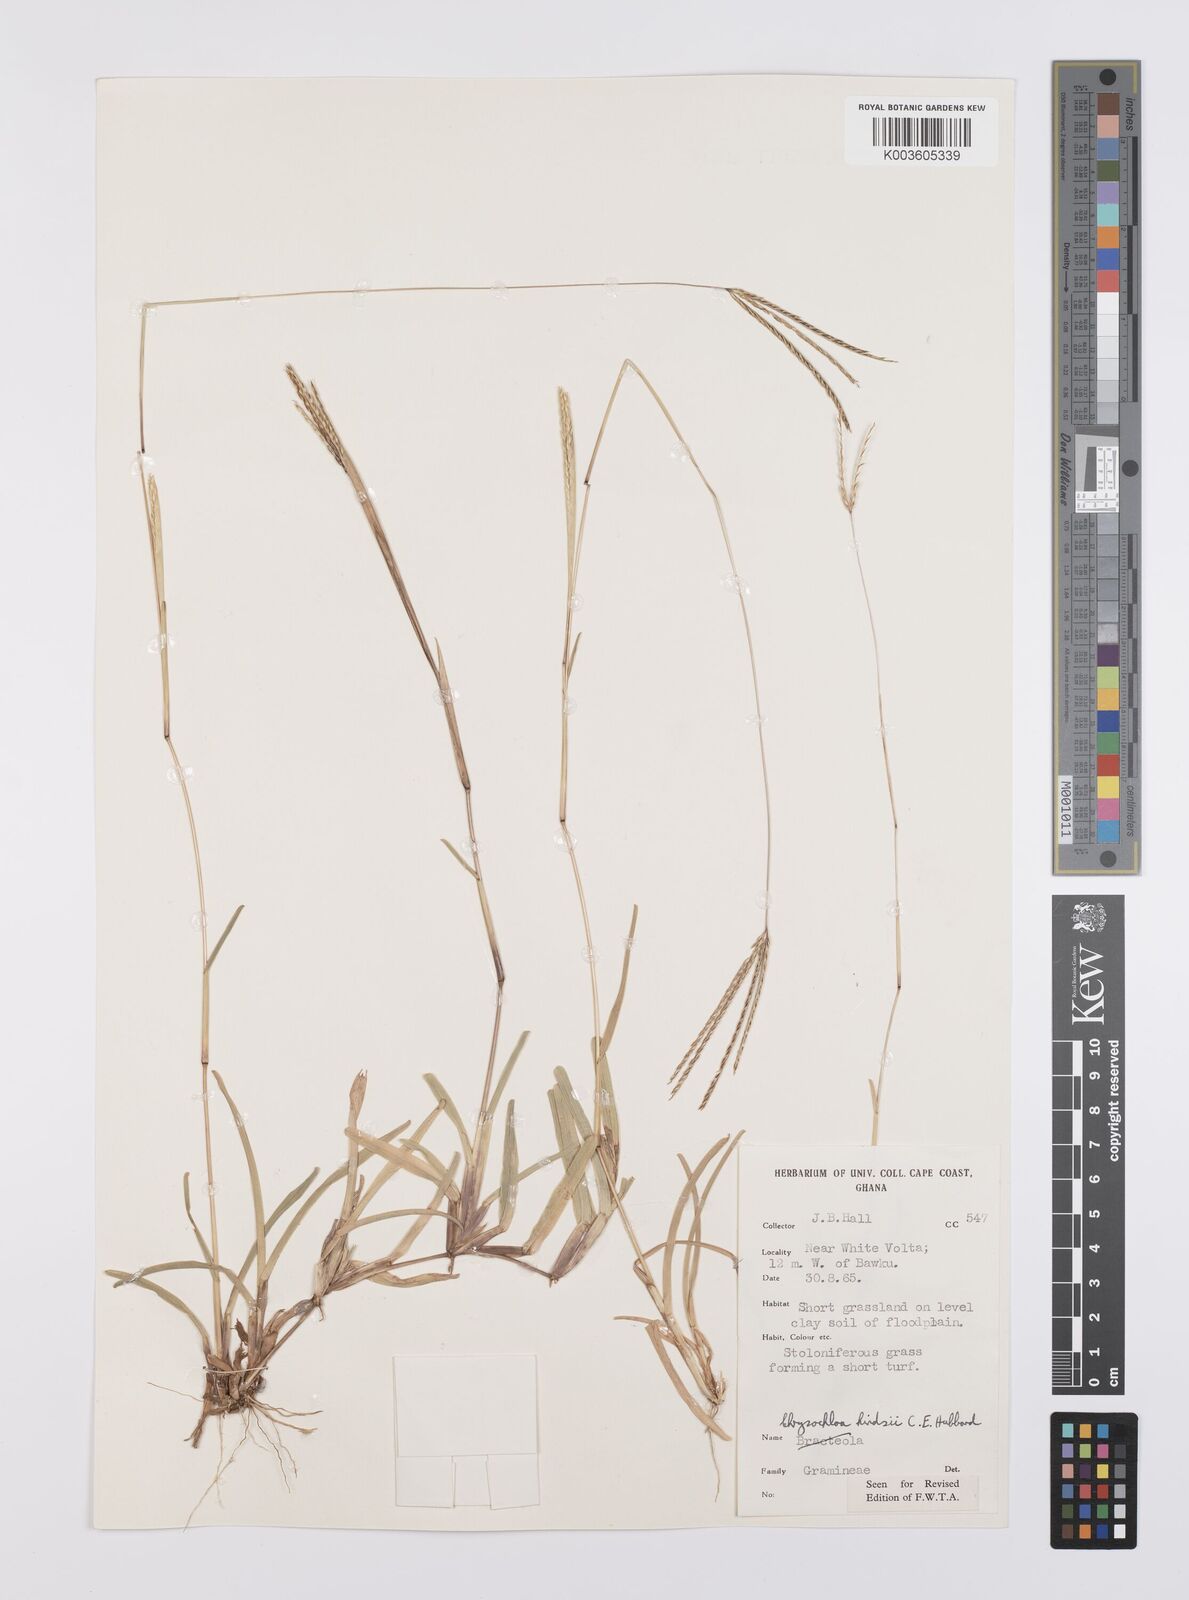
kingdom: Plantae
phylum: Tracheophyta
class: Liliopsida
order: Poales
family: Poaceae
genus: Chrysochloa
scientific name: Chrysochloa hindsii
